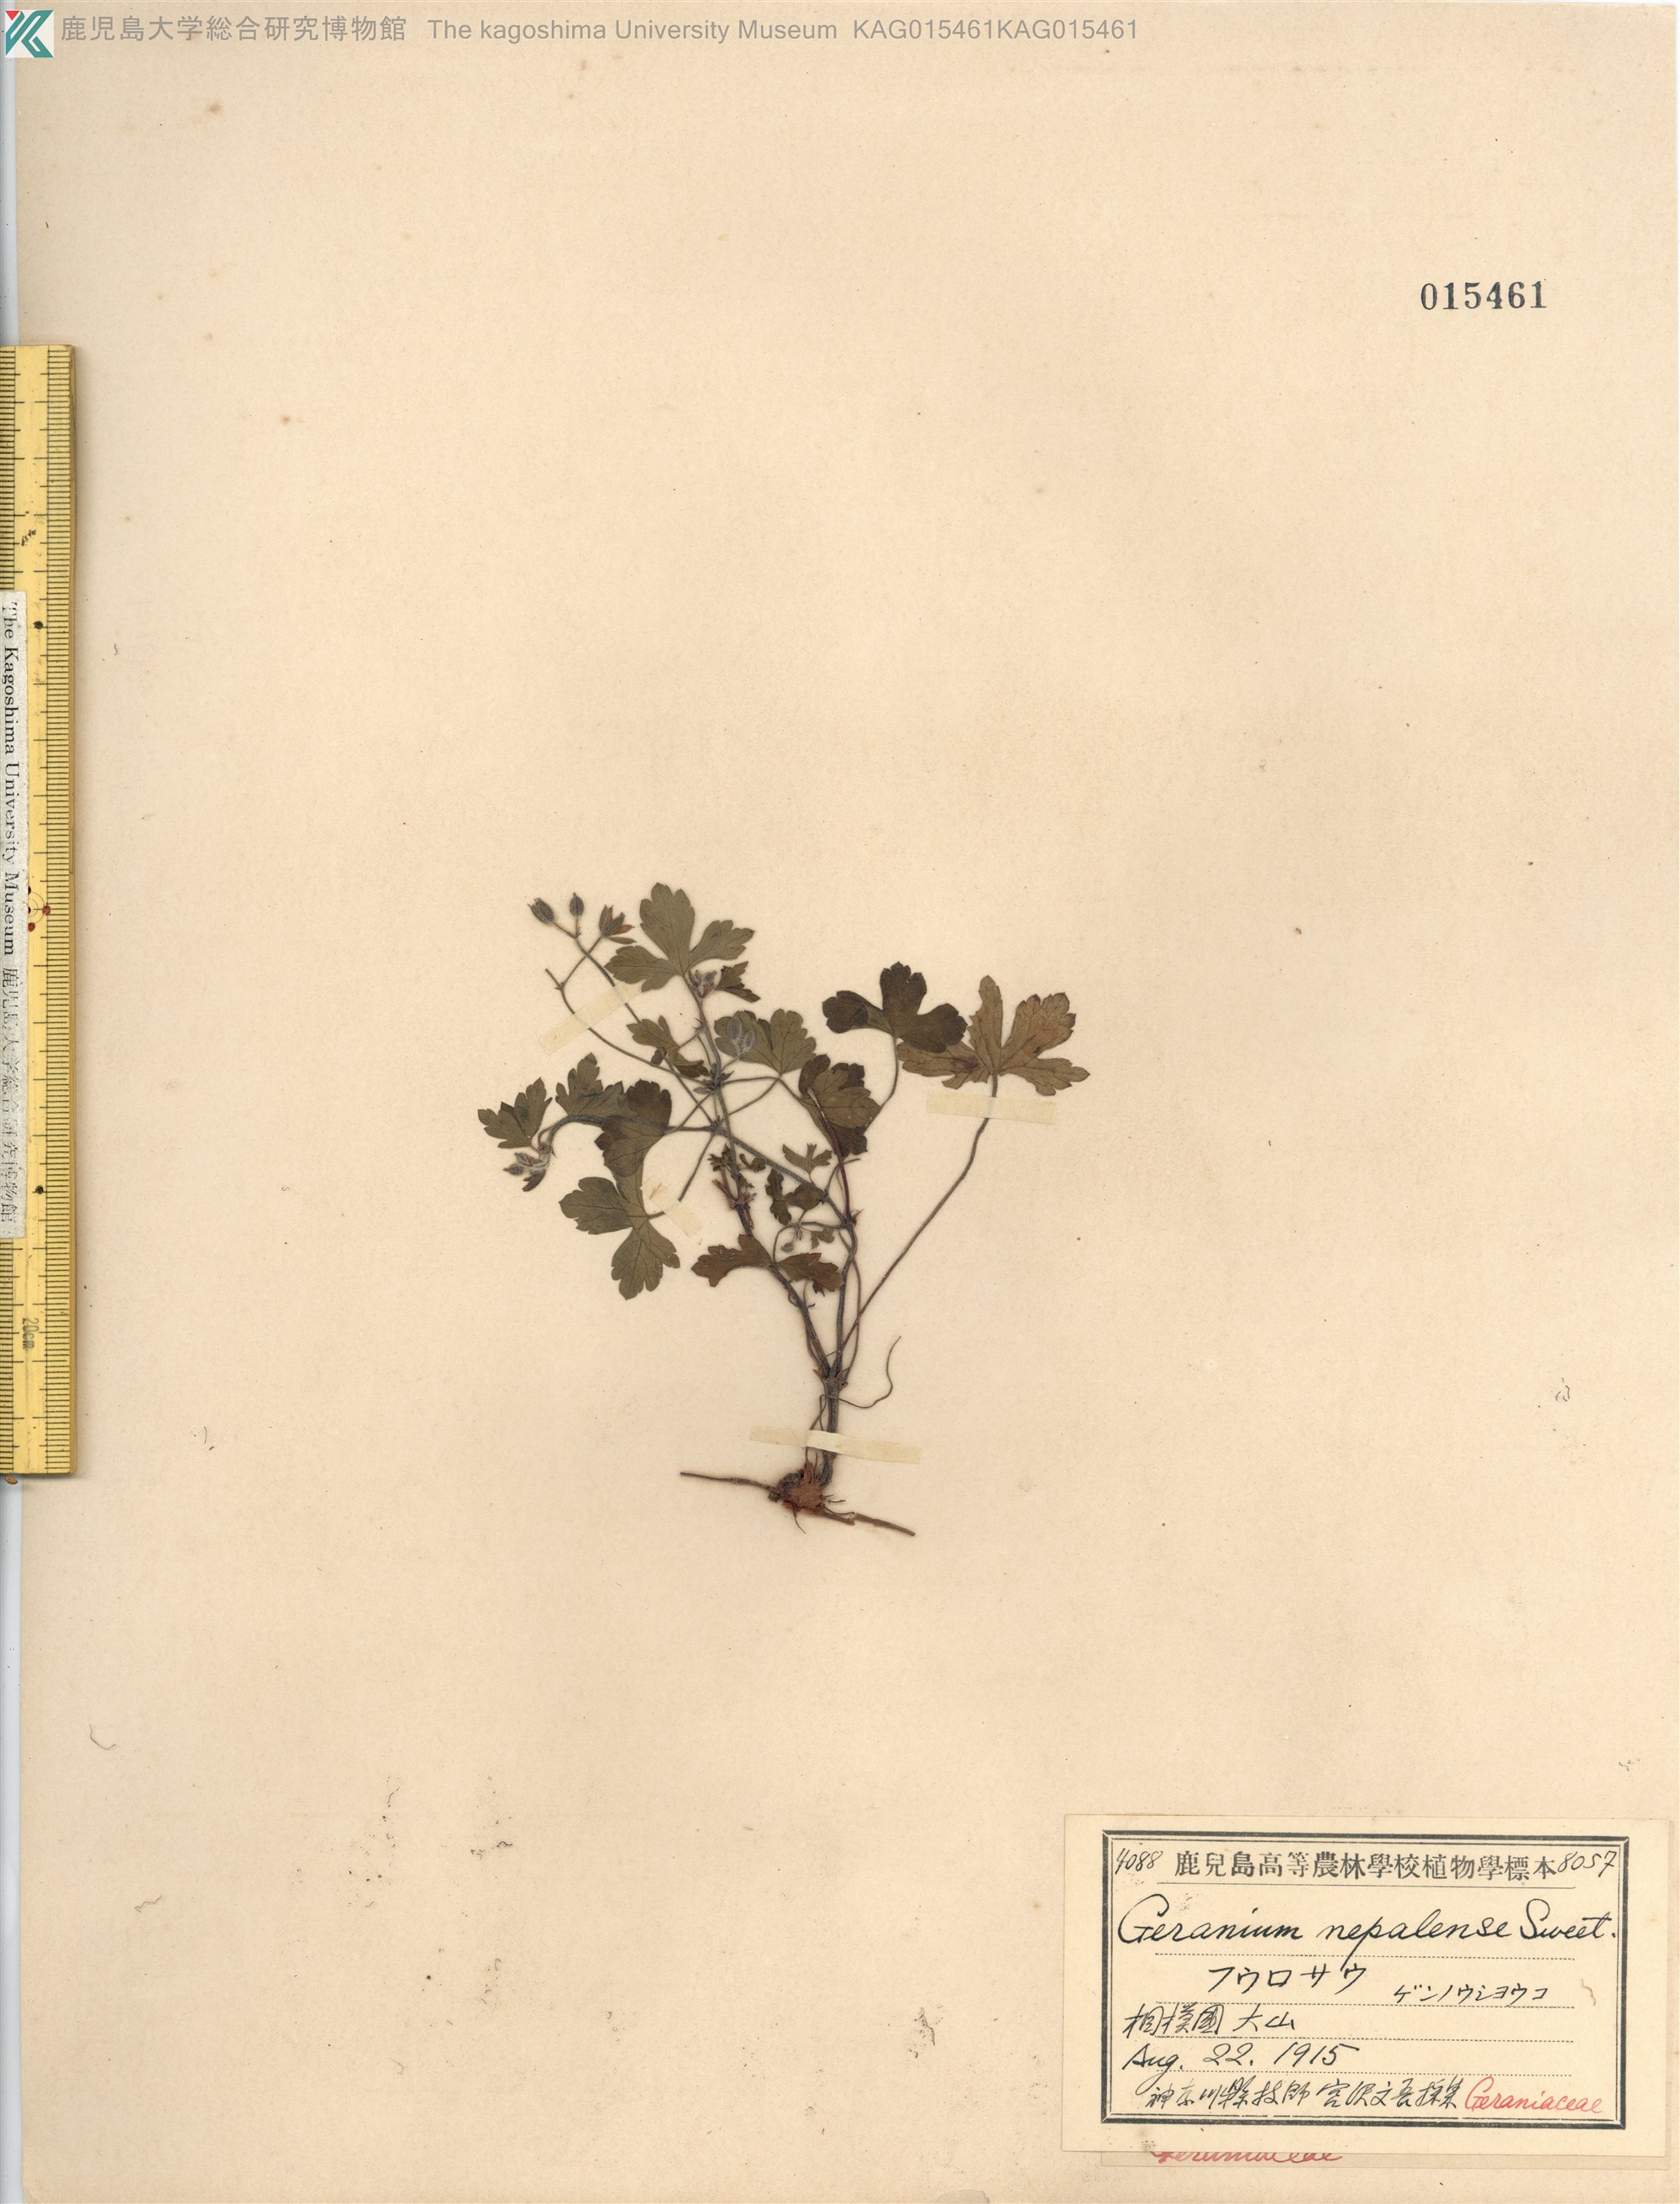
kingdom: Plantae
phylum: Tracheophyta
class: Magnoliopsida
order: Geraniales
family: Geraniaceae
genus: Geranium
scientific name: Geranium thunbergii
